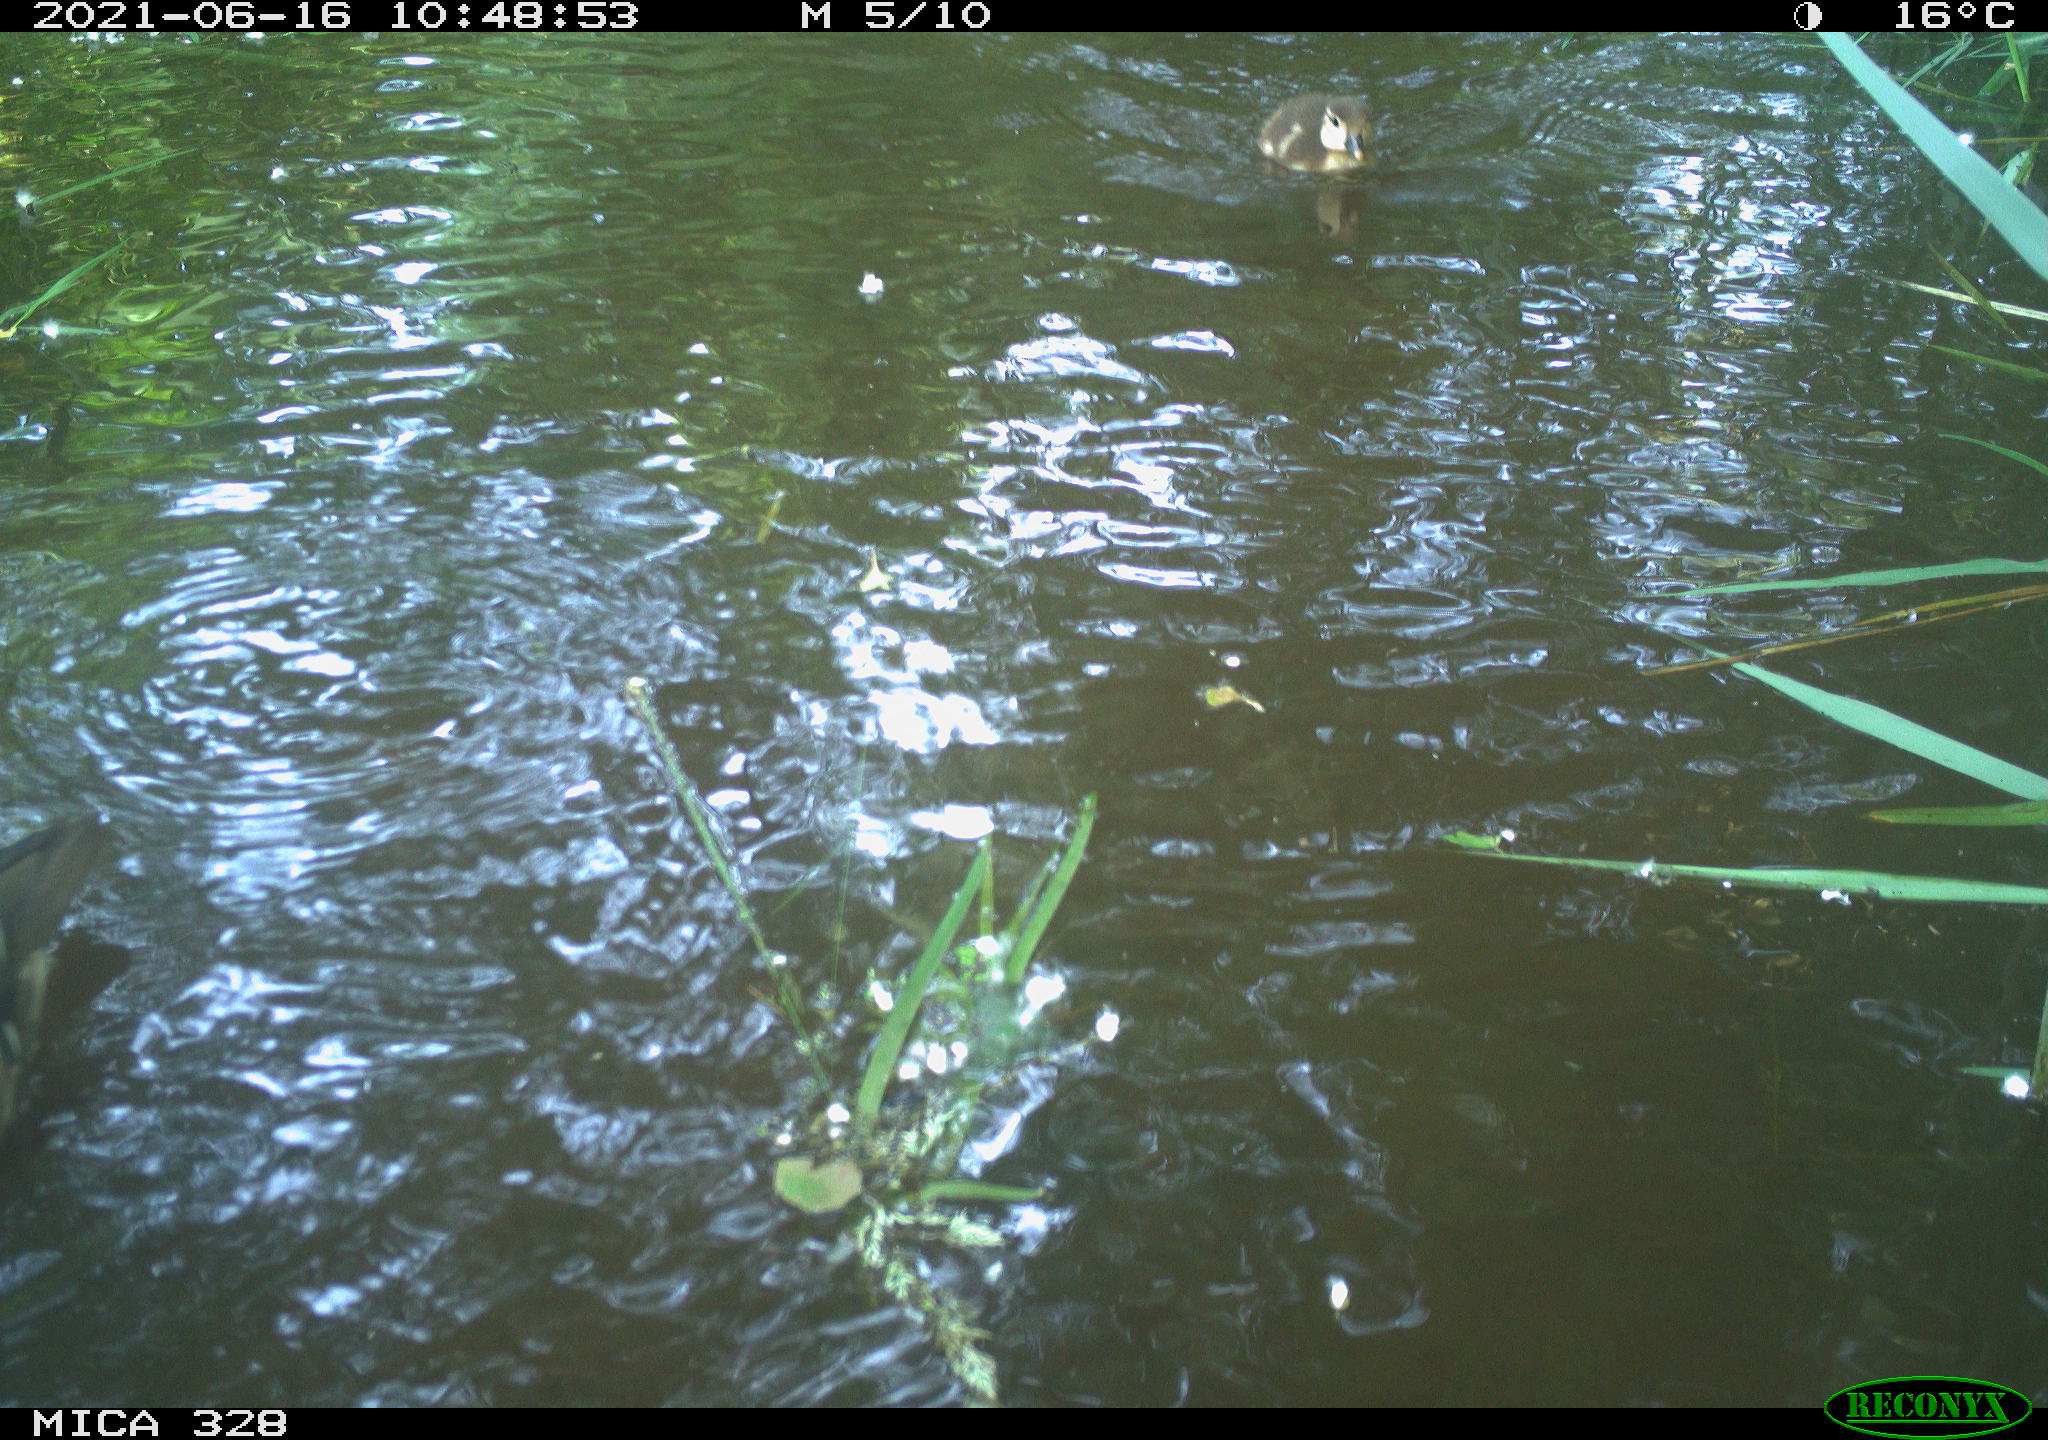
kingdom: Animalia
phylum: Chordata
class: Aves
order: Anseriformes
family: Anatidae
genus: Aix
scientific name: Aix galericulata
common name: Mandarin duck
